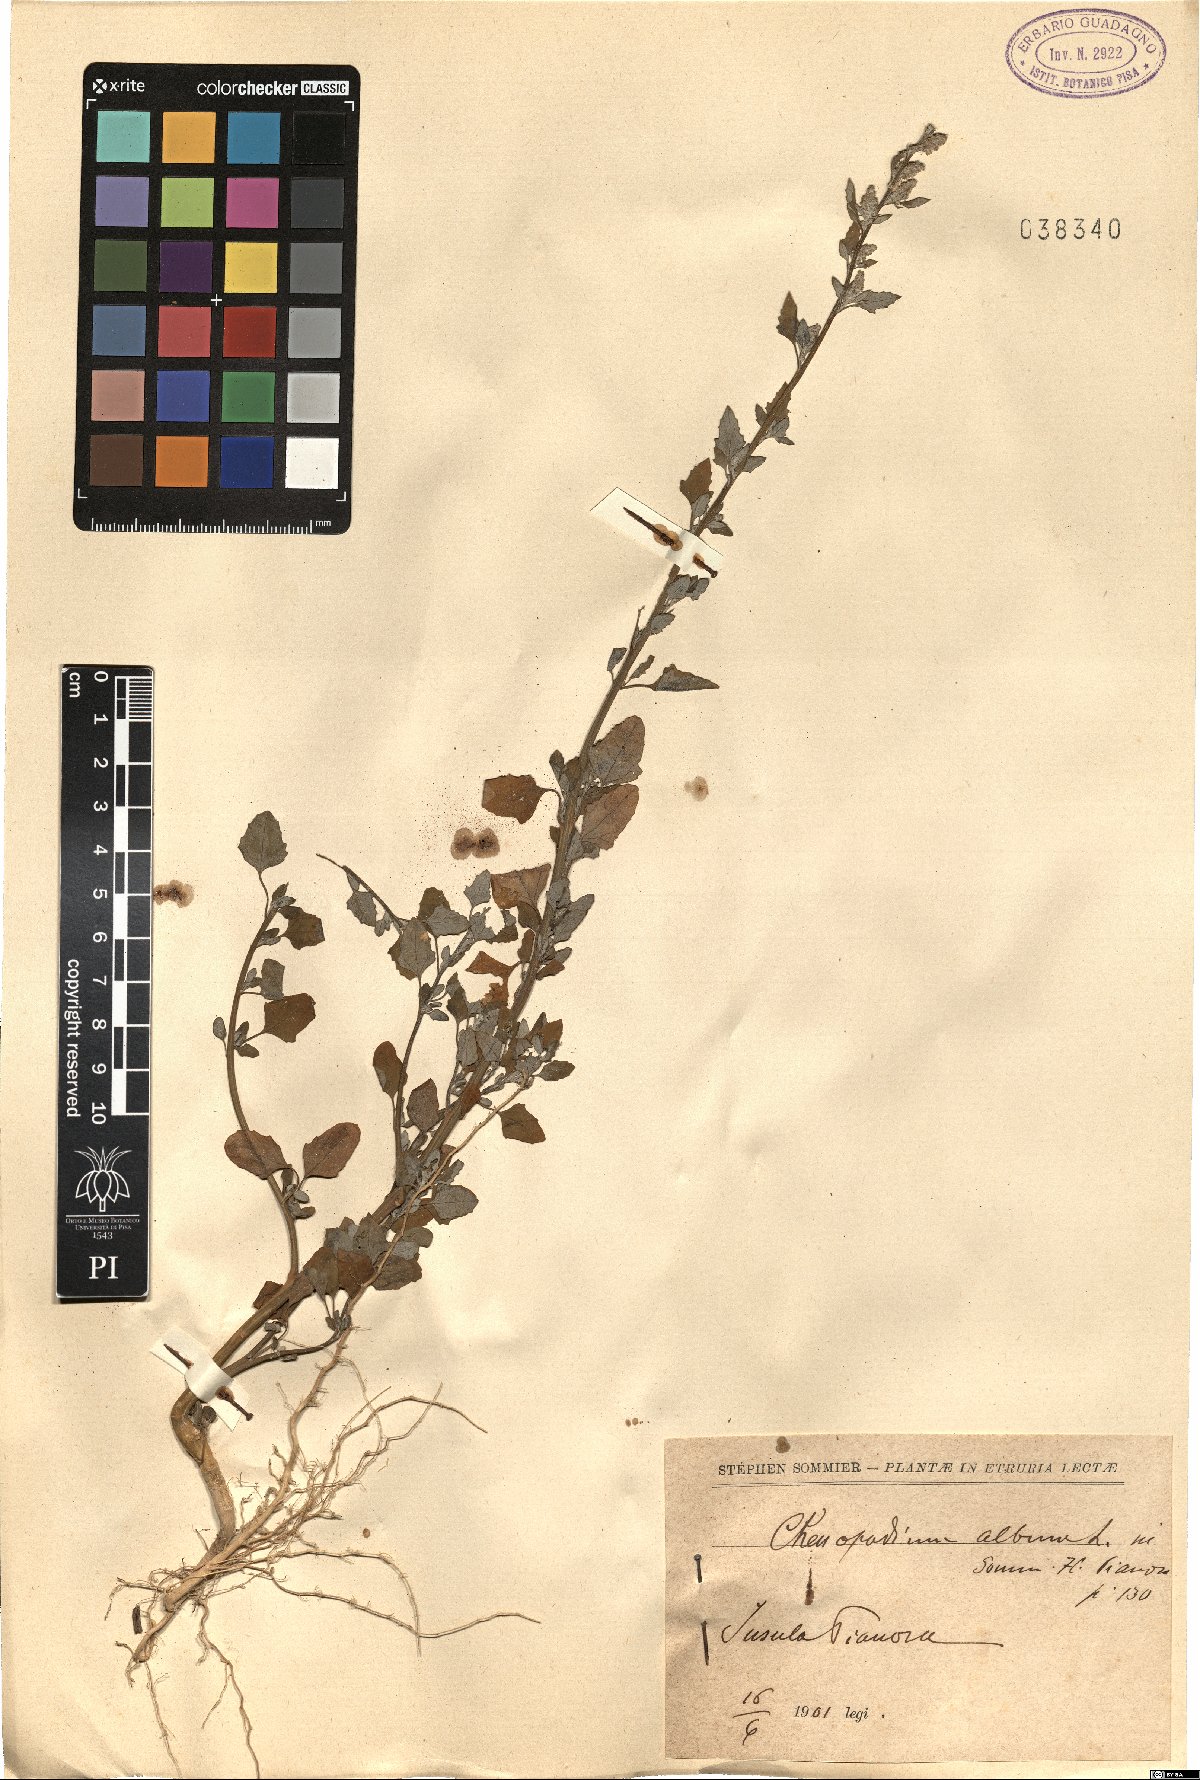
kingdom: Plantae
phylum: Tracheophyta
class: Magnoliopsida
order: Caryophyllales
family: Amaranthaceae
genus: Chenopodium
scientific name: Chenopodium album
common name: Fat-hen
